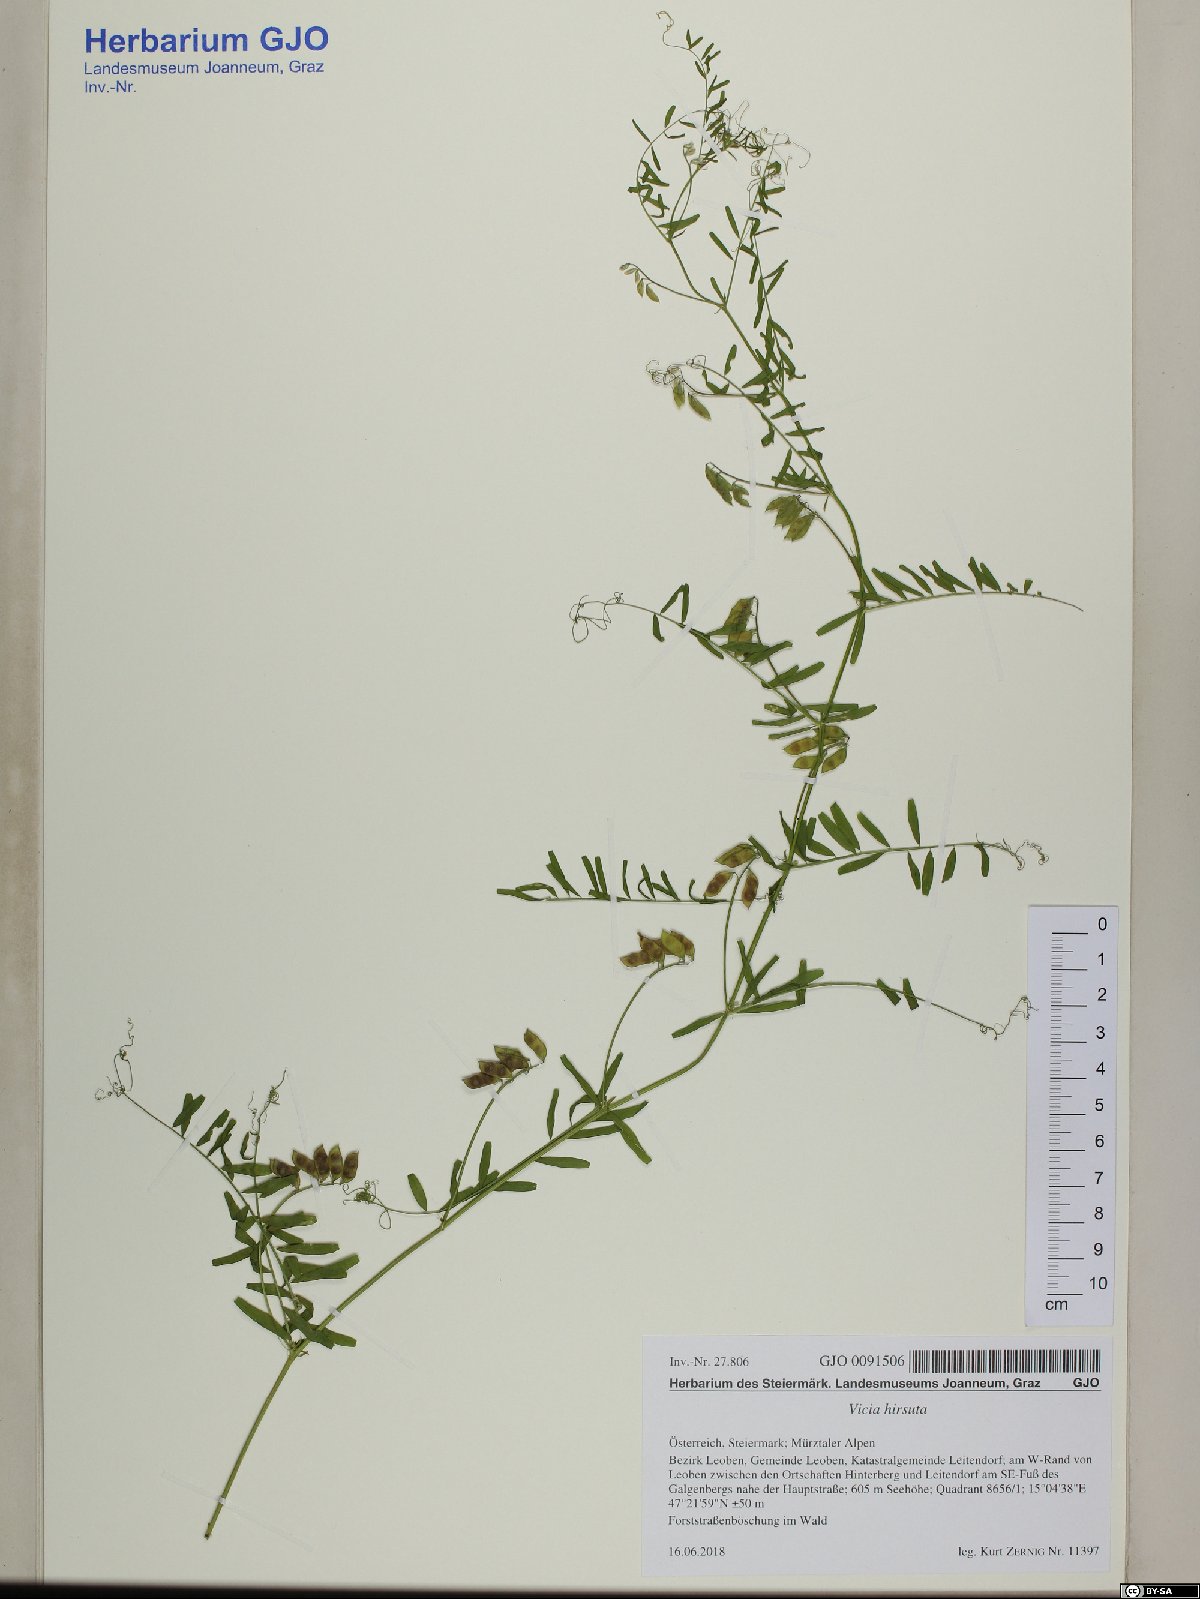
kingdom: Plantae
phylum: Tracheophyta
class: Magnoliopsida
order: Fabales
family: Fabaceae
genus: Vicia
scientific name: Vicia hirsuta
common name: Tiny vetch
